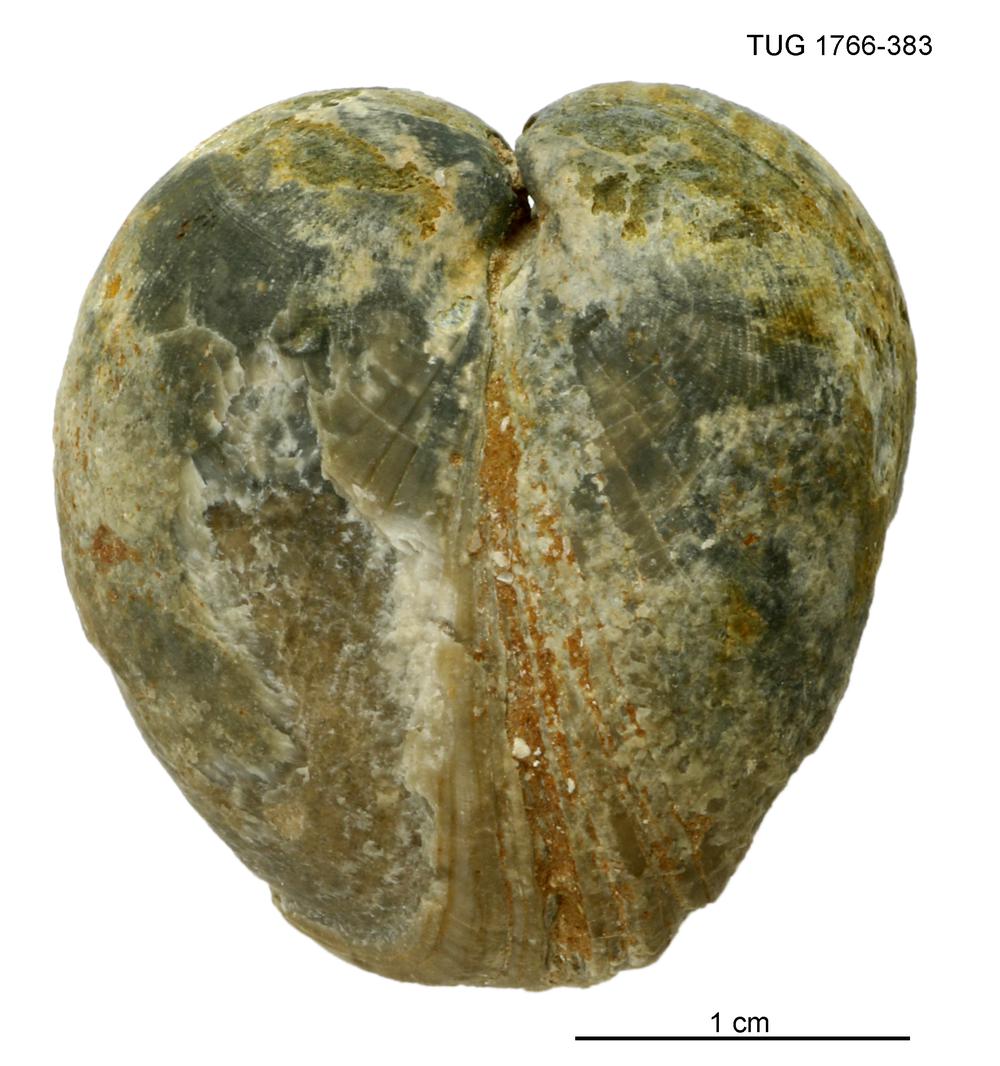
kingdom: Animalia
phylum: Brachiopoda
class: Rhynchonellata
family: Porambonitidae
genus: Porambonites
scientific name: Porambonites
